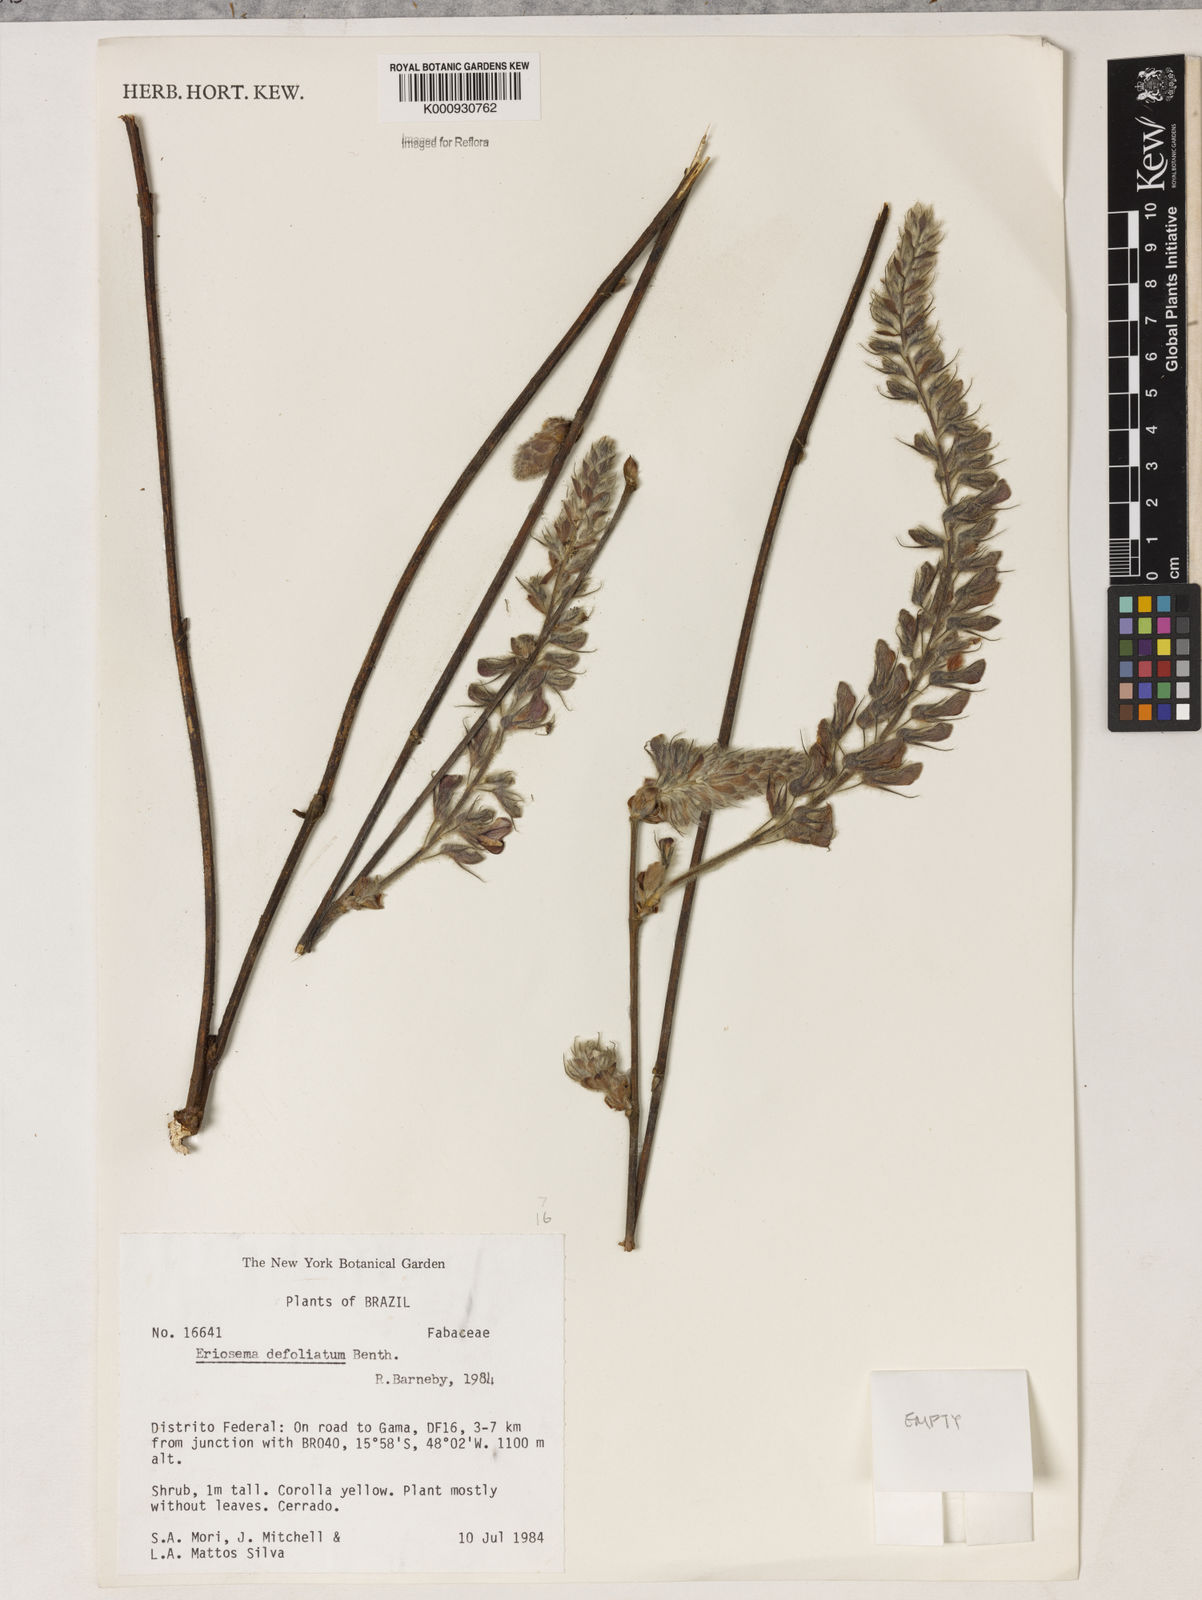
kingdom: Plantae
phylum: Tracheophyta
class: Magnoliopsida
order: Fabales
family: Fabaceae
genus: Eriosema
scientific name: Eriosema defoliatum
